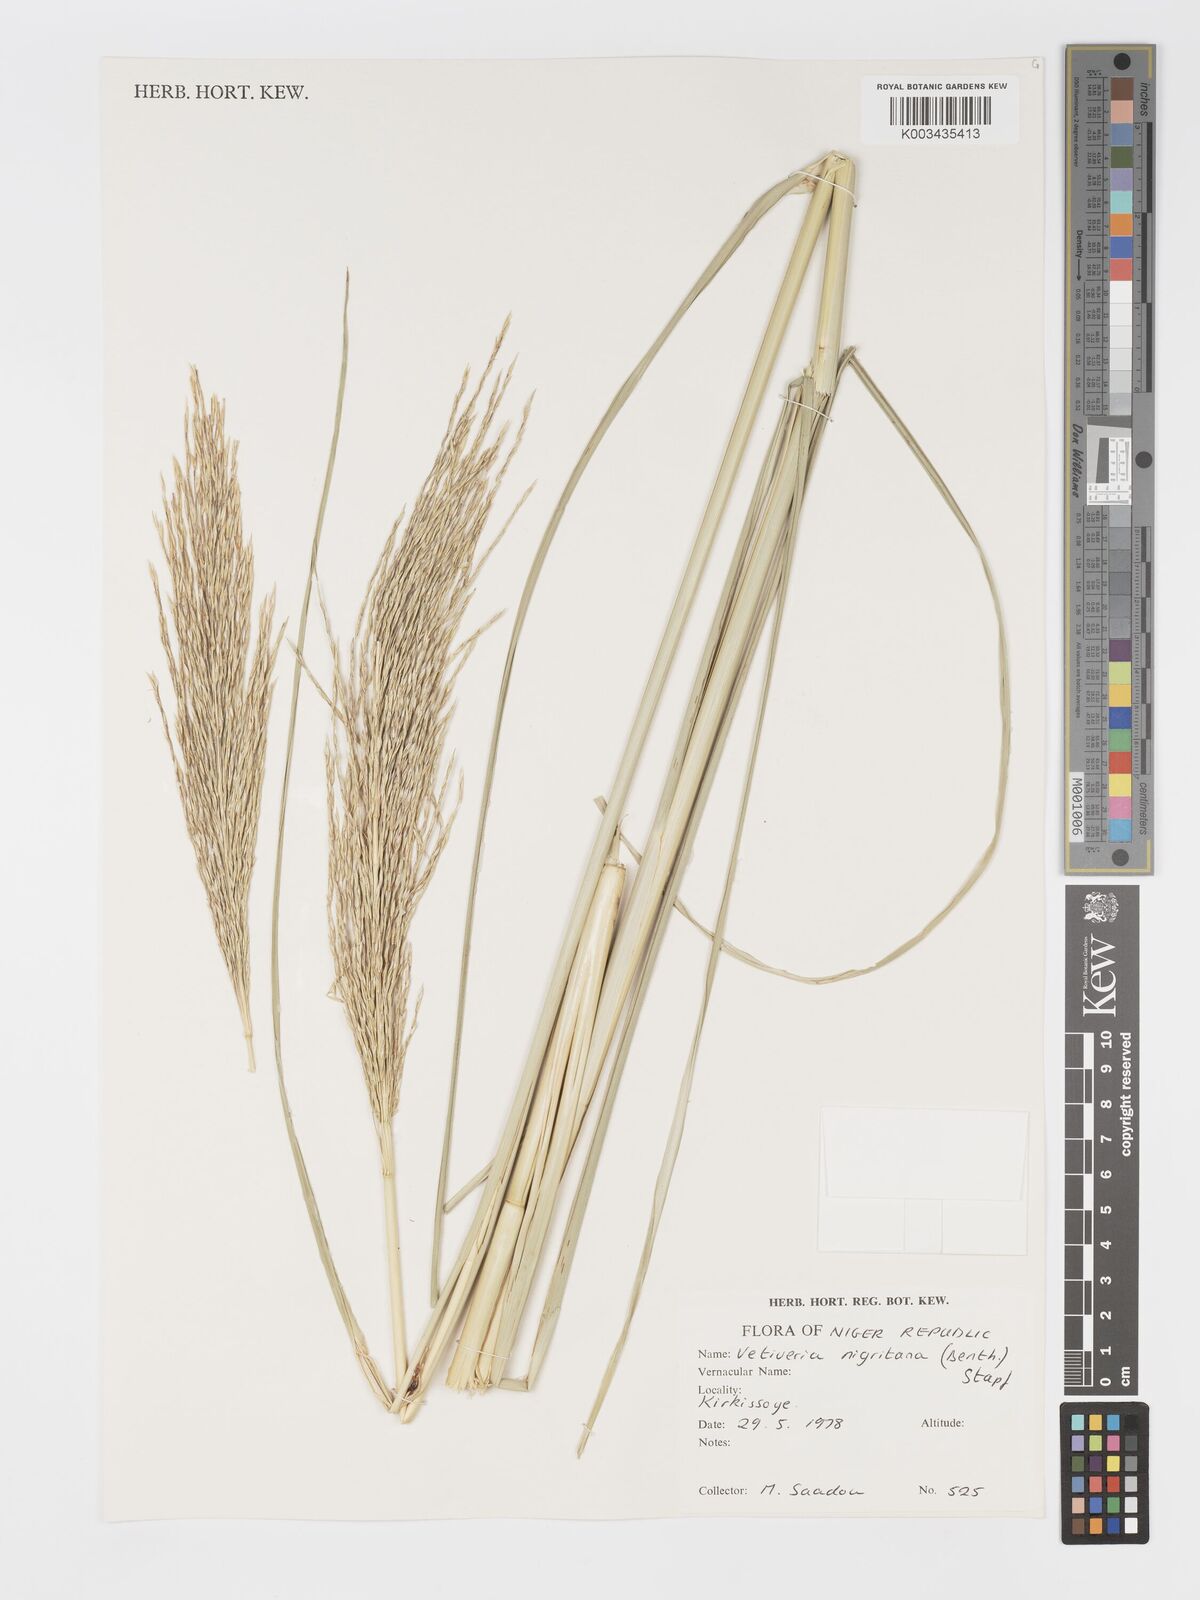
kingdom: Plantae
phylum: Tracheophyta
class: Liliopsida
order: Poales
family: Poaceae
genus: Chrysopogon
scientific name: Chrysopogon nigritanus
